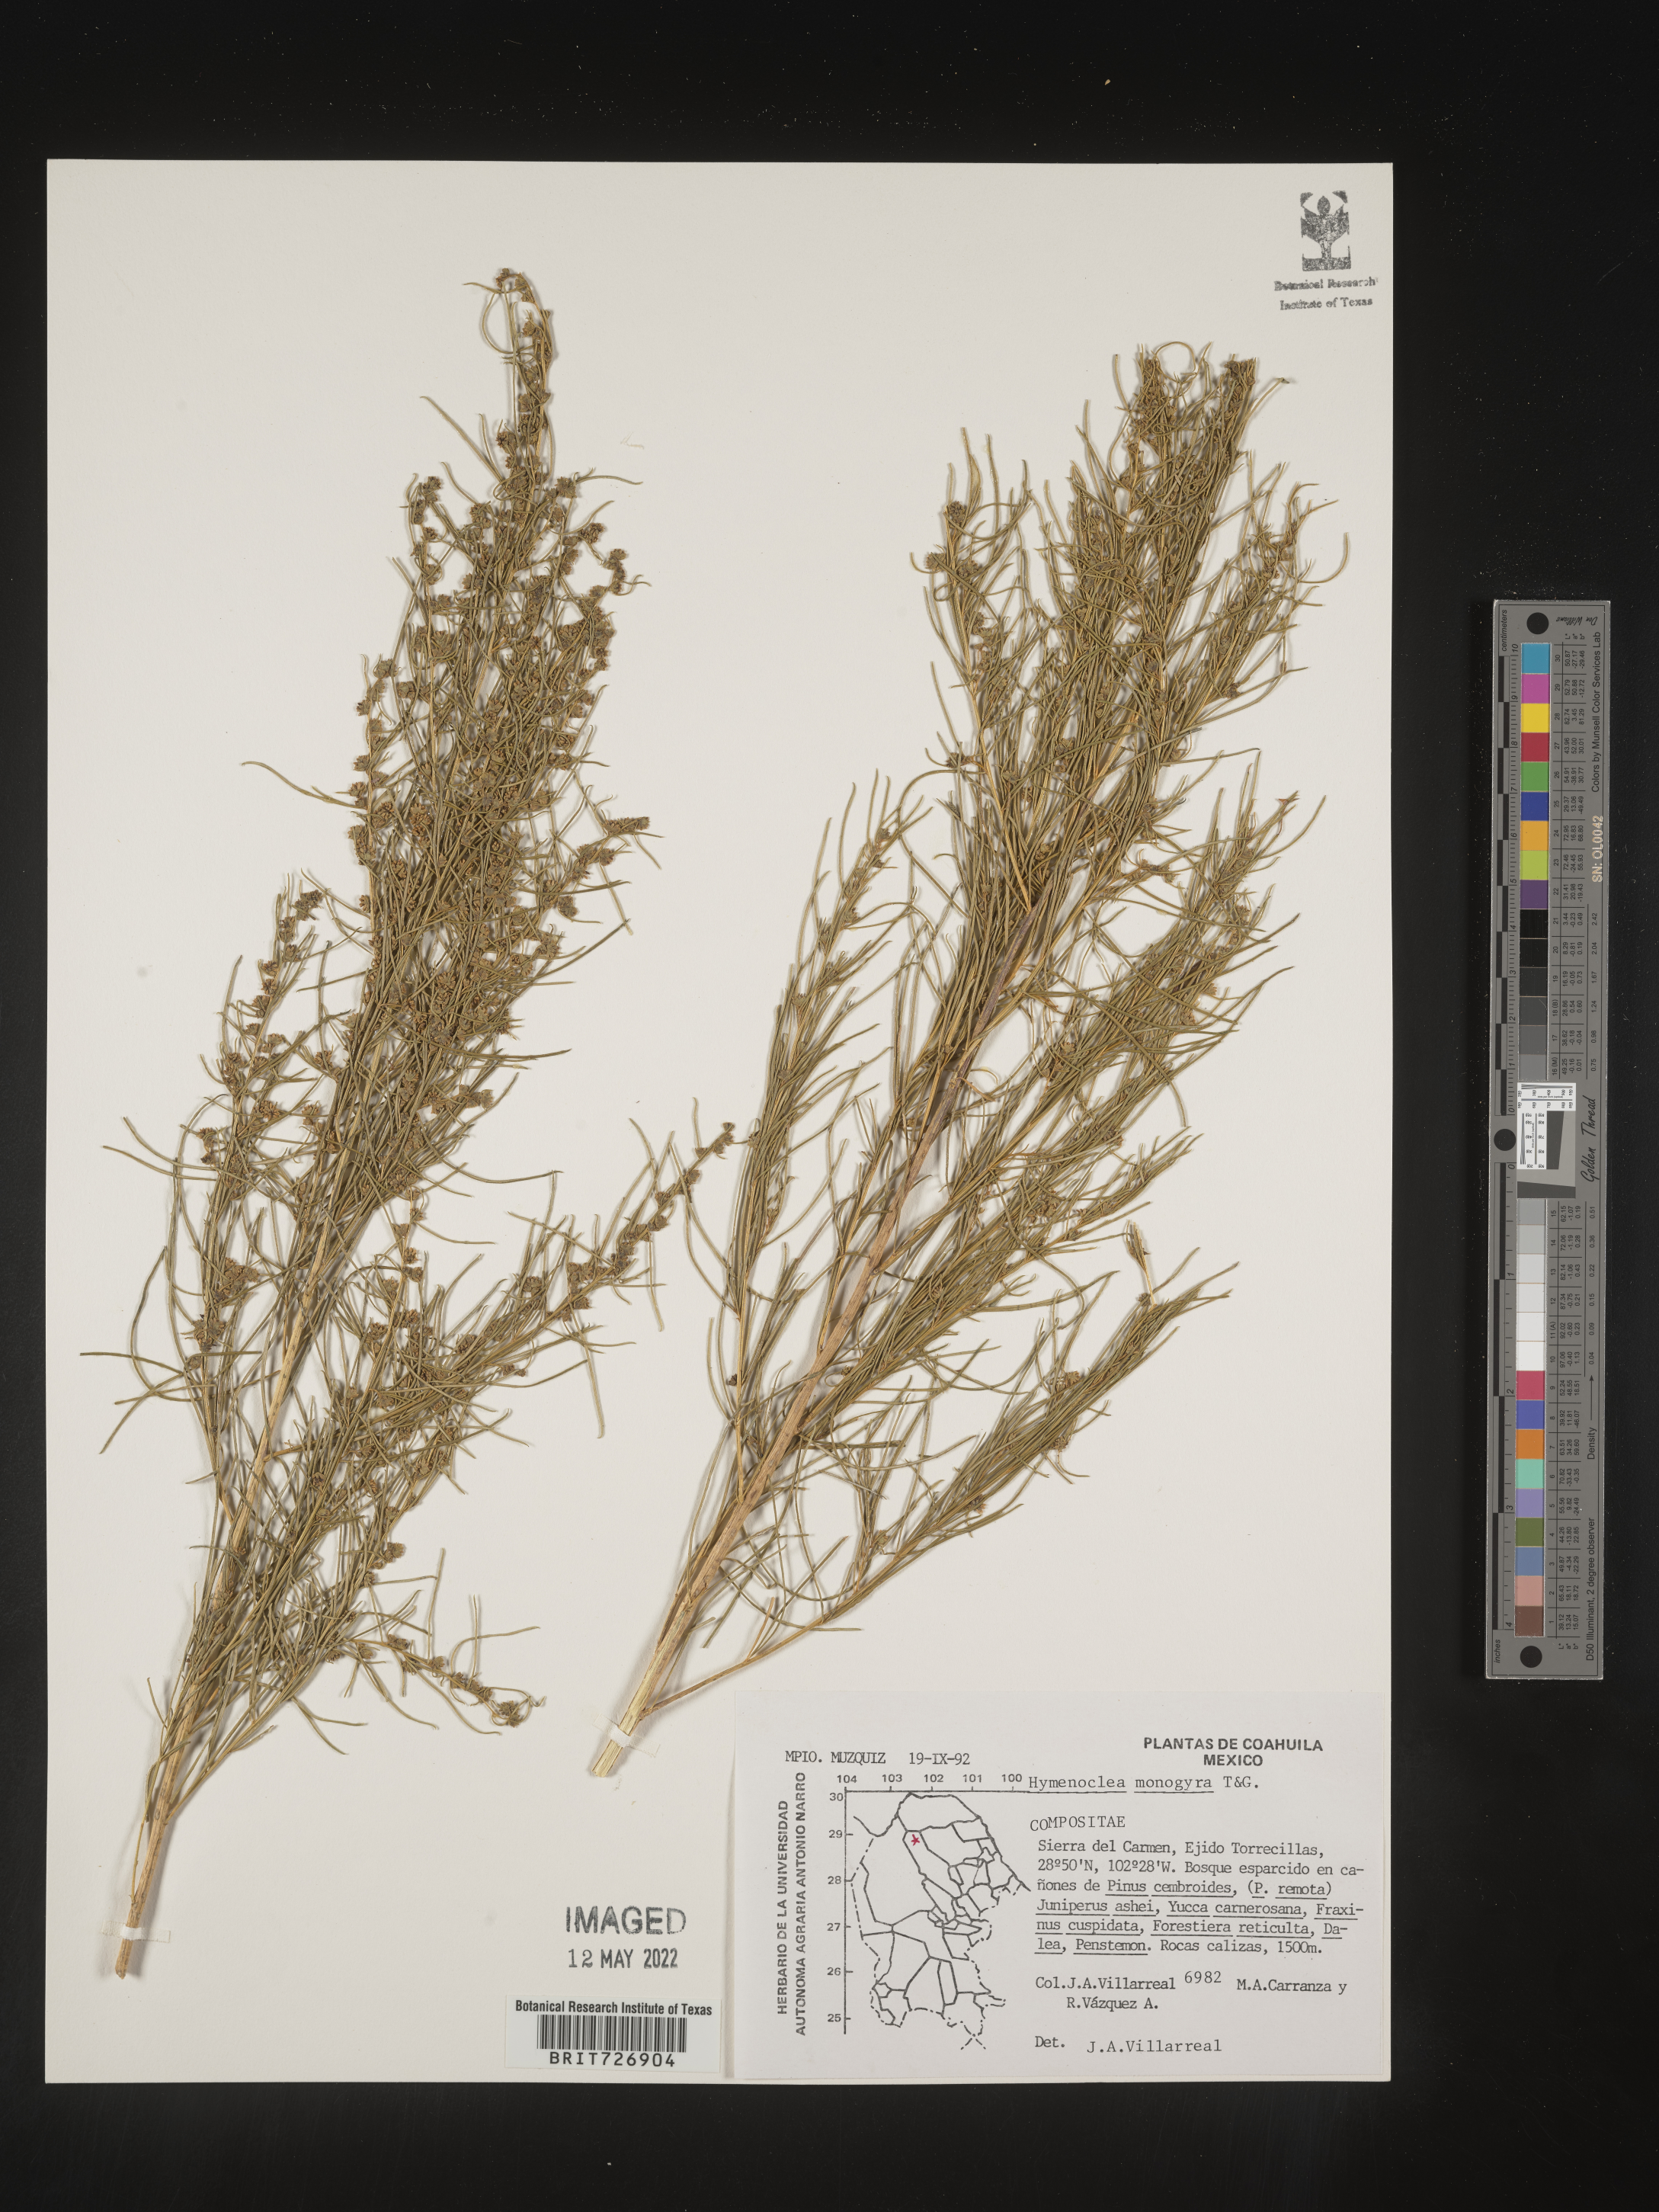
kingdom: Plantae
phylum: Tracheophyta
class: Magnoliopsida
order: Asterales
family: Asteraceae
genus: Ambrosia
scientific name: Ambrosia monogyra
